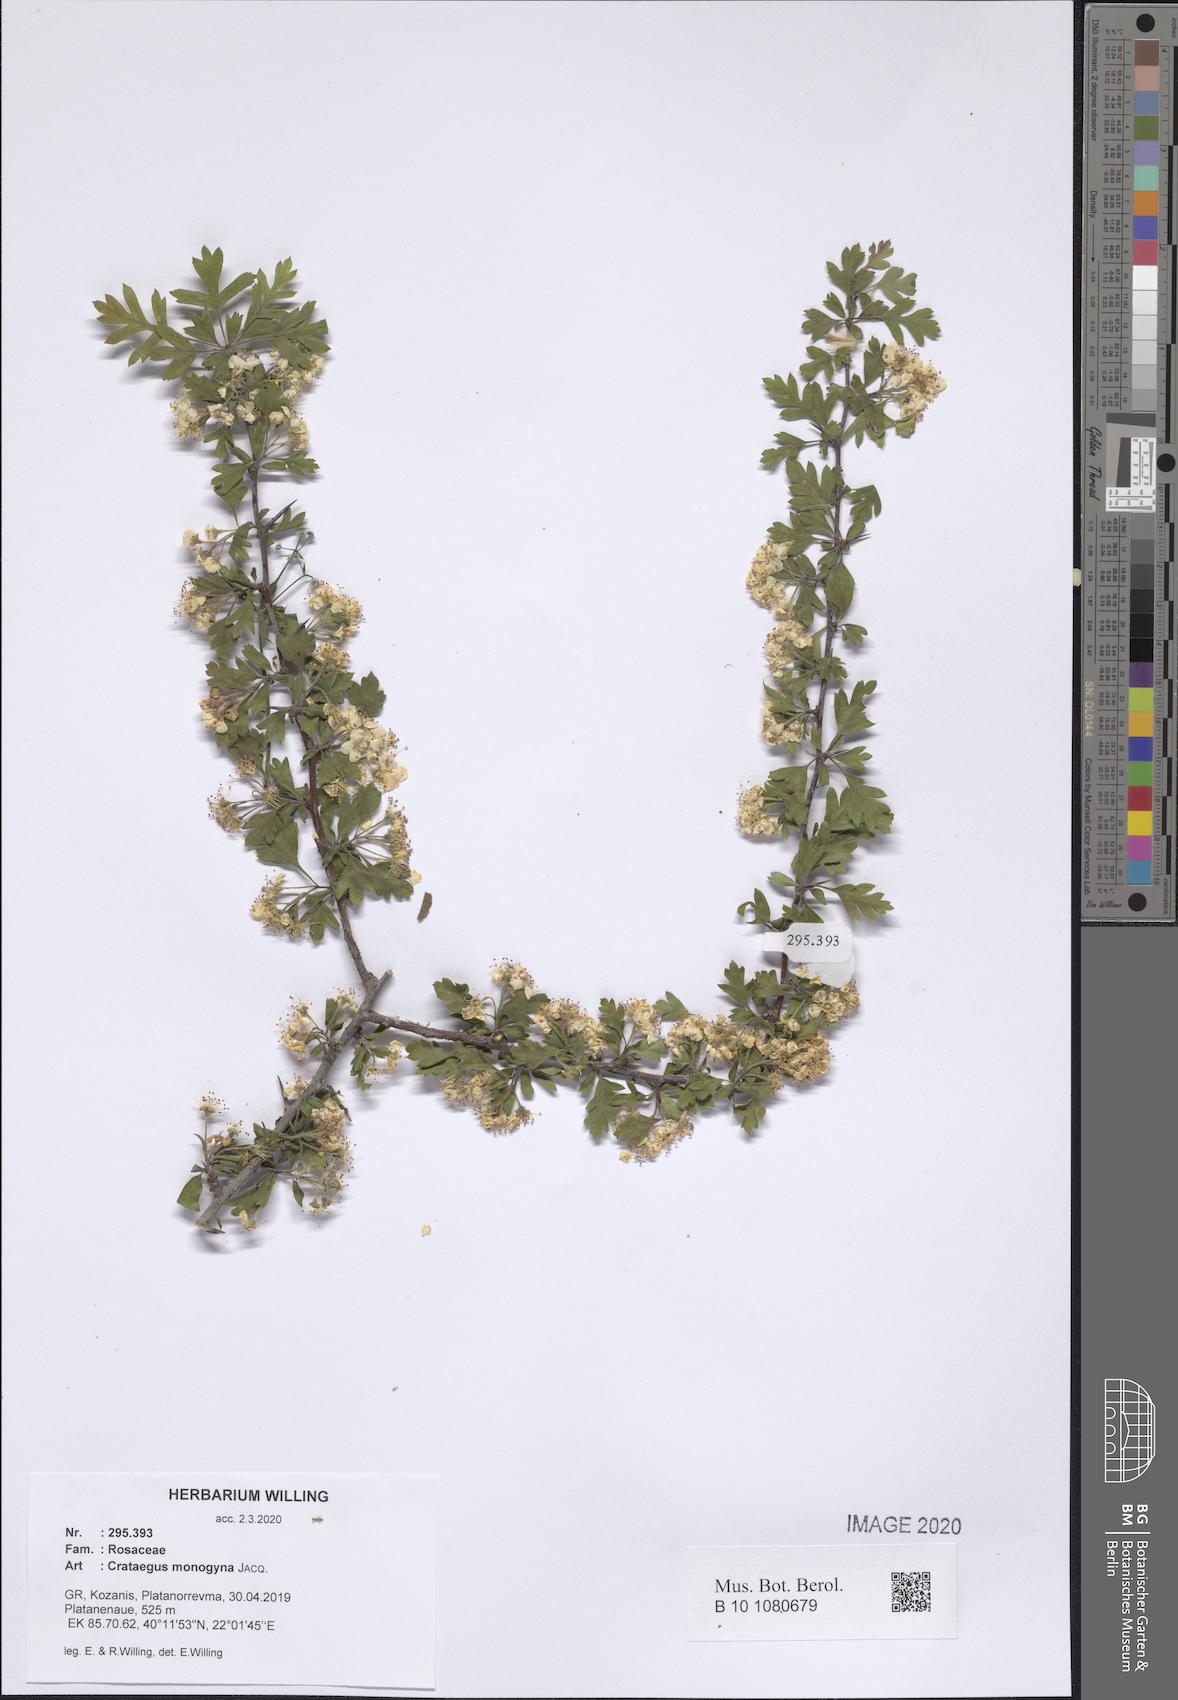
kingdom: Plantae
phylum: Tracheophyta
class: Magnoliopsida
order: Rosales
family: Rosaceae
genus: Crataegus
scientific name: Crataegus monogyna
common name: Hawthorn
